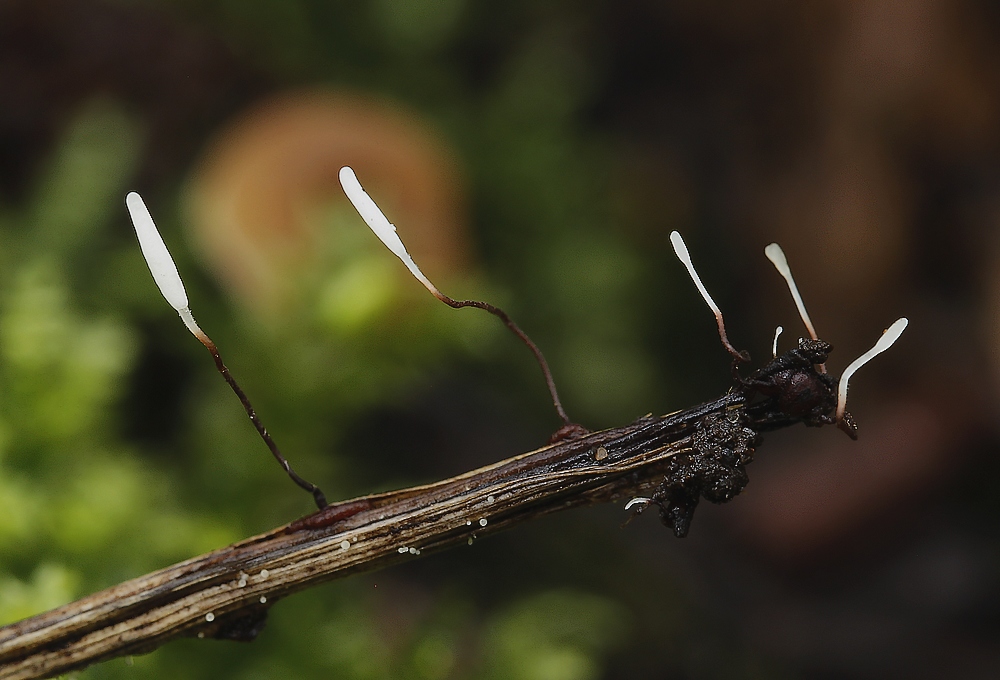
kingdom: Fungi
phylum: Basidiomycota
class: Agaricomycetes
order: Agaricales
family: Typhulaceae
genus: Typhula
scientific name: Typhula erythropus
